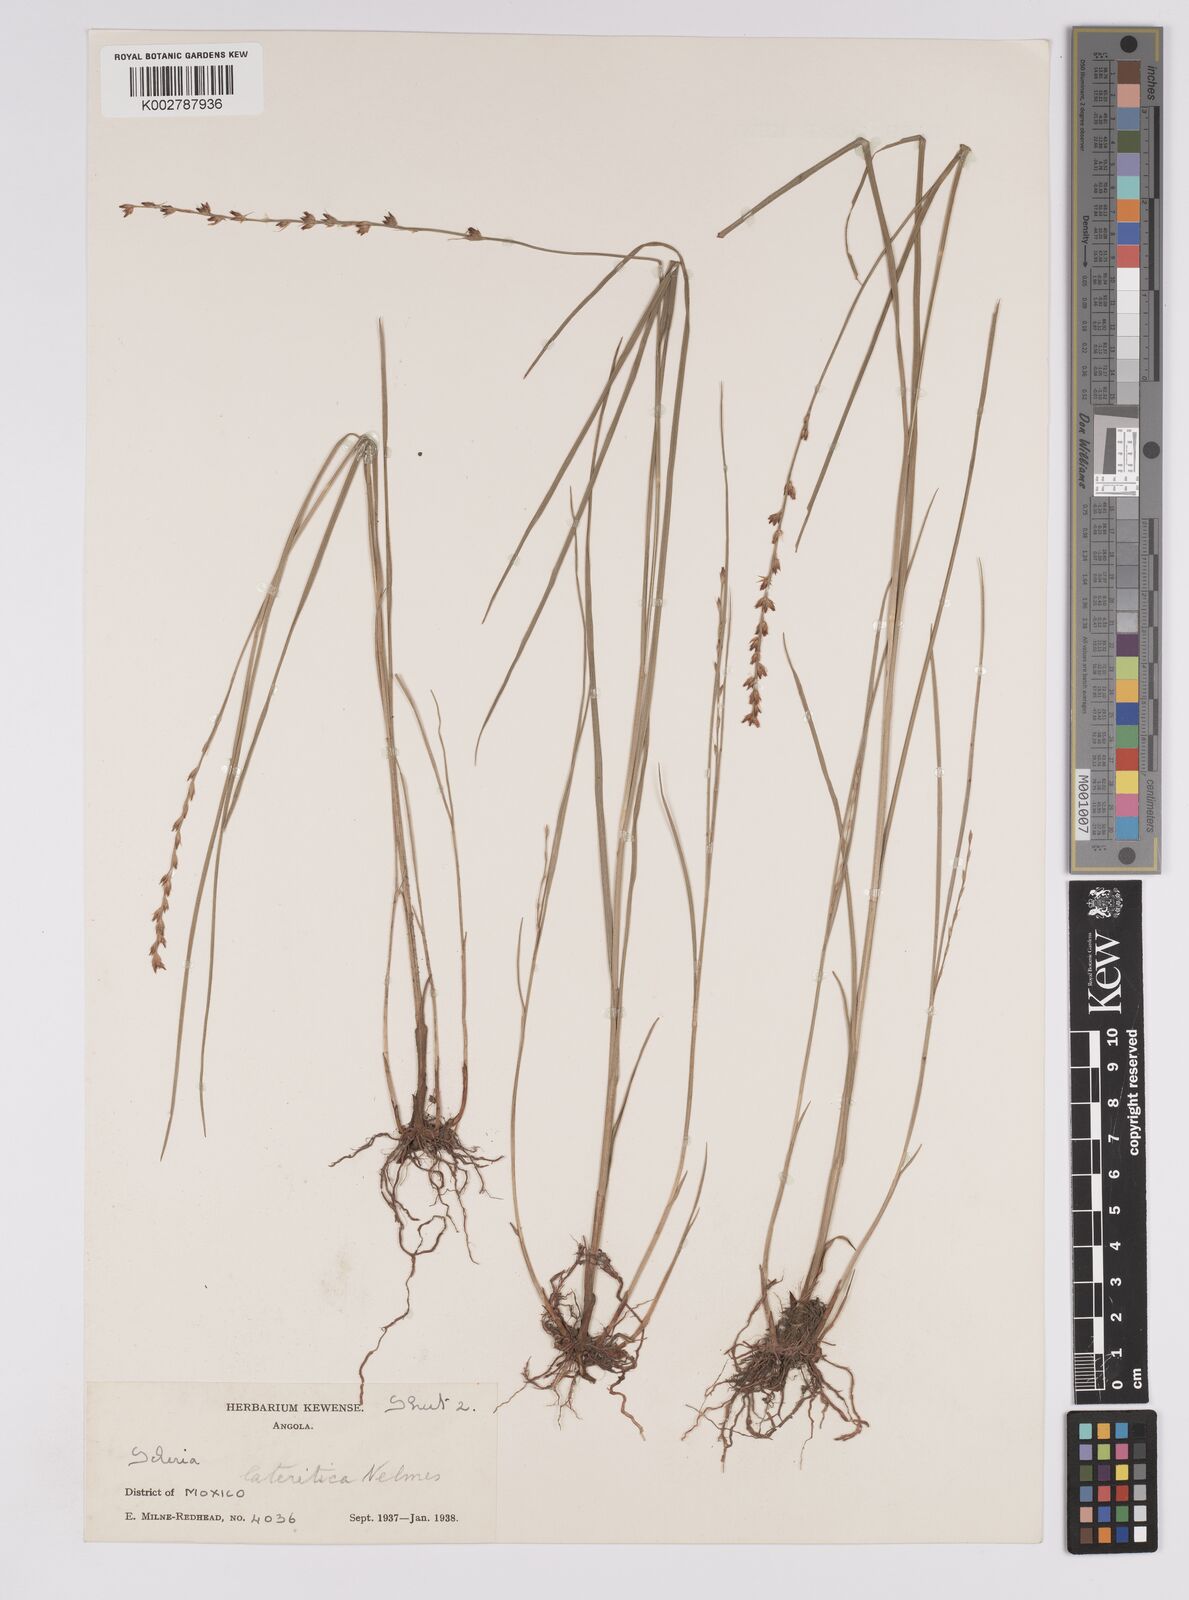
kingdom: Plantae
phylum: Tracheophyta
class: Liliopsida
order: Poales
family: Cyperaceae
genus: Scleria
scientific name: Scleria flexuosa
